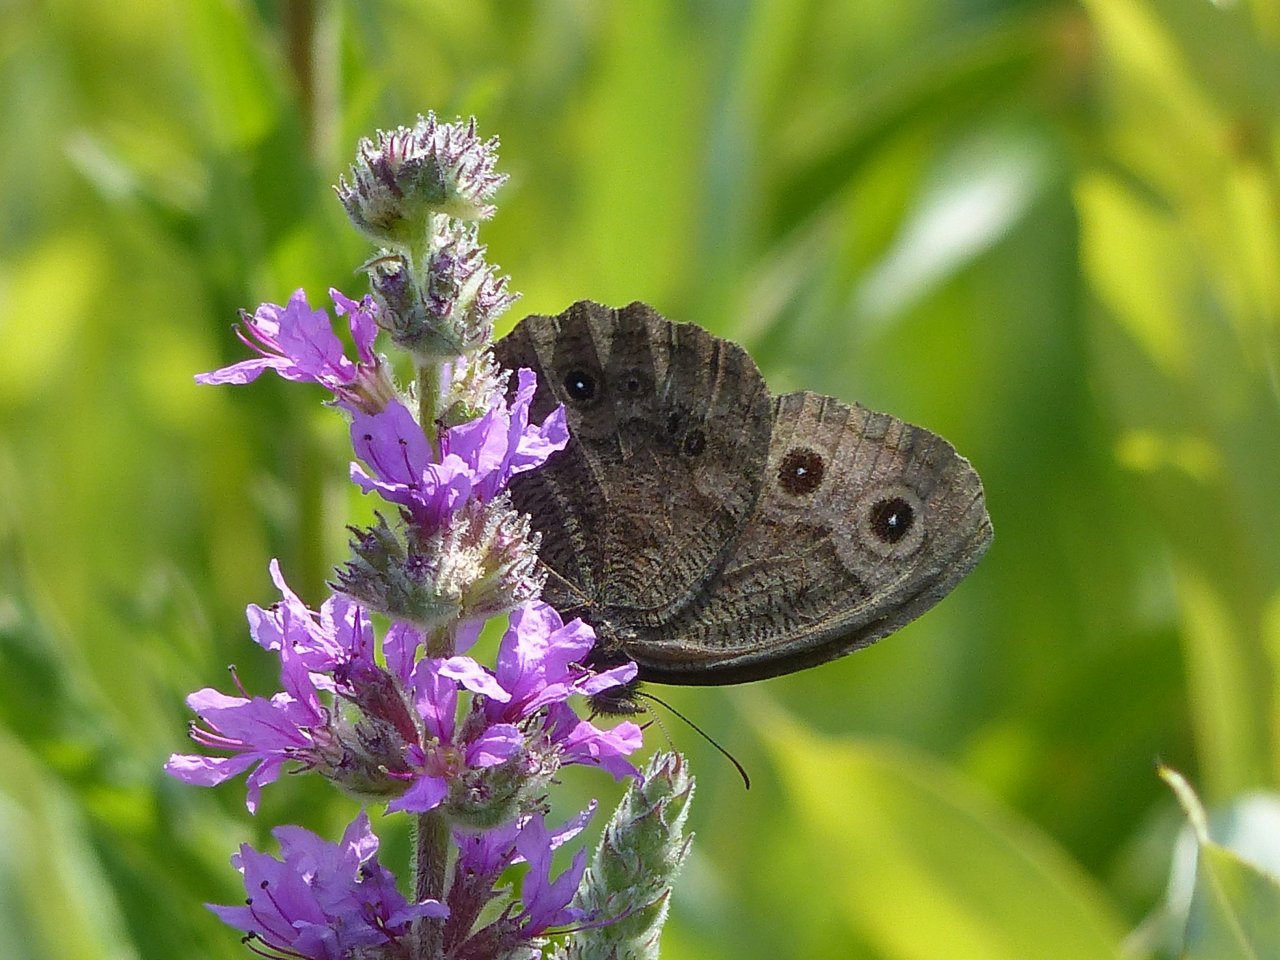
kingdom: Animalia
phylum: Arthropoda
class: Insecta
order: Lepidoptera
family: Nymphalidae
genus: Cercyonis
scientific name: Cercyonis pegala
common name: Common Wood-Nymph
